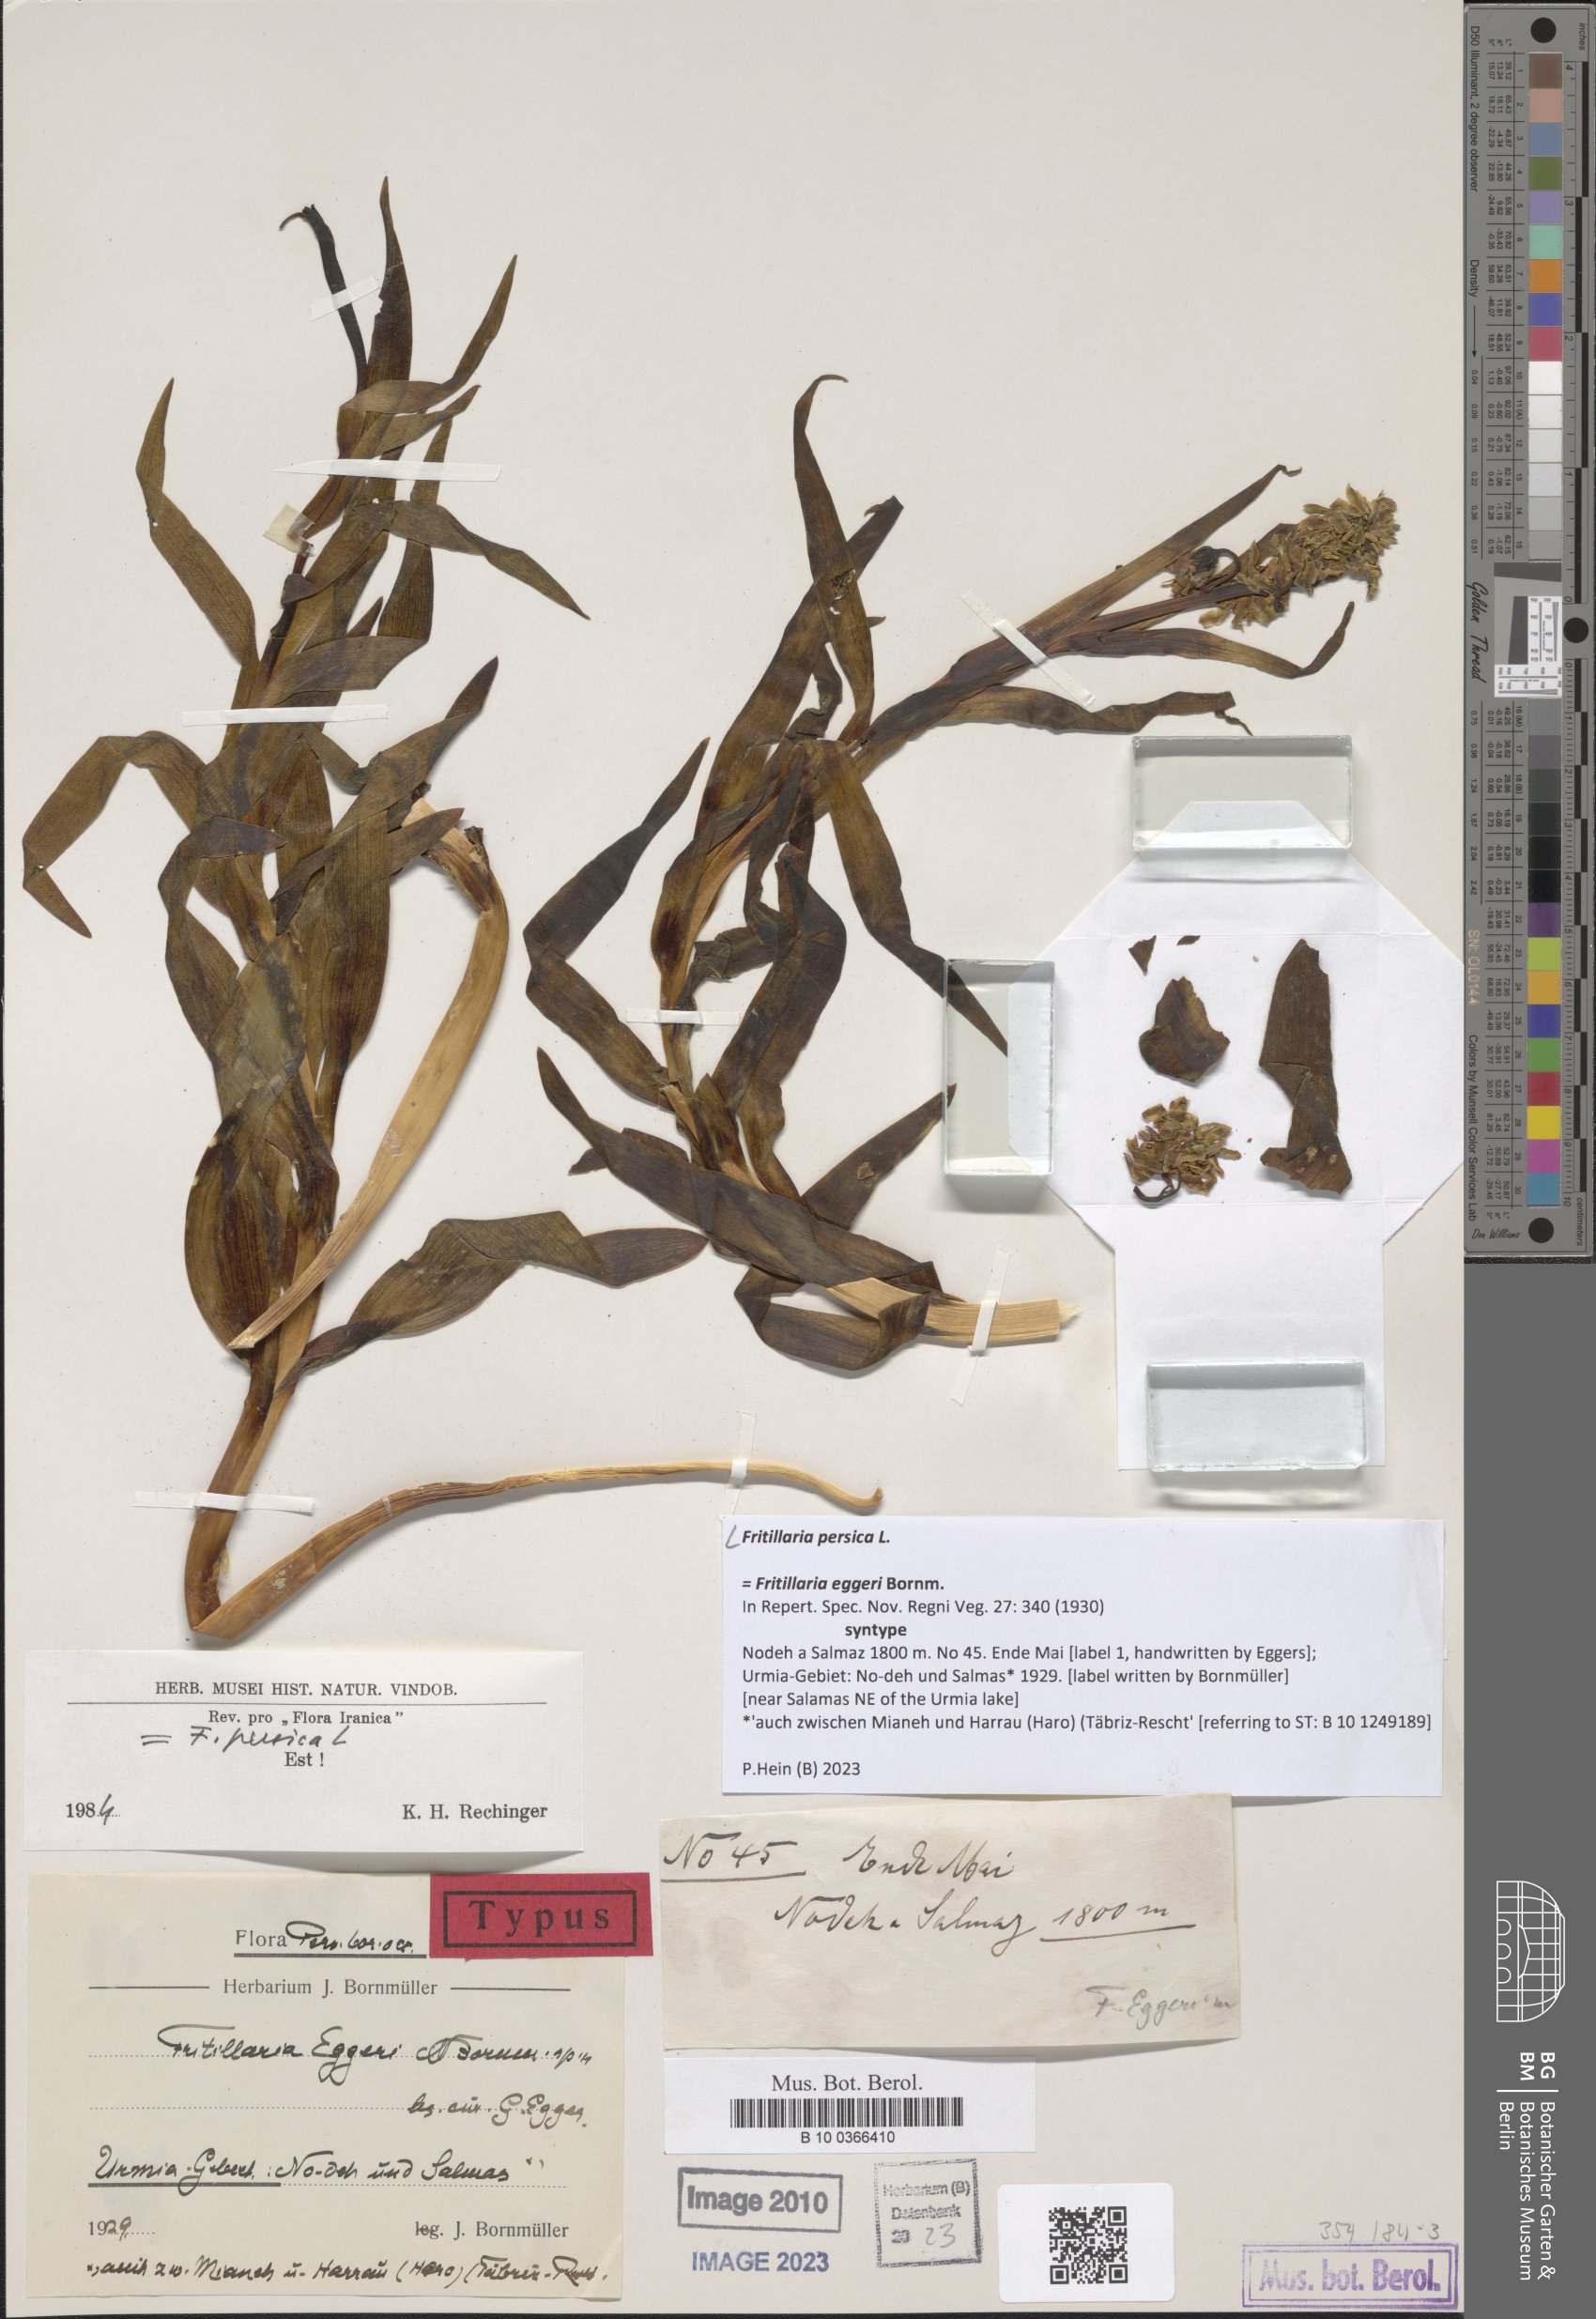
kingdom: Plantae
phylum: Tracheophyta
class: Liliopsida
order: Liliales
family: Liliaceae
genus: Fritillaria
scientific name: Fritillaria persica
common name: Persian fritillary
